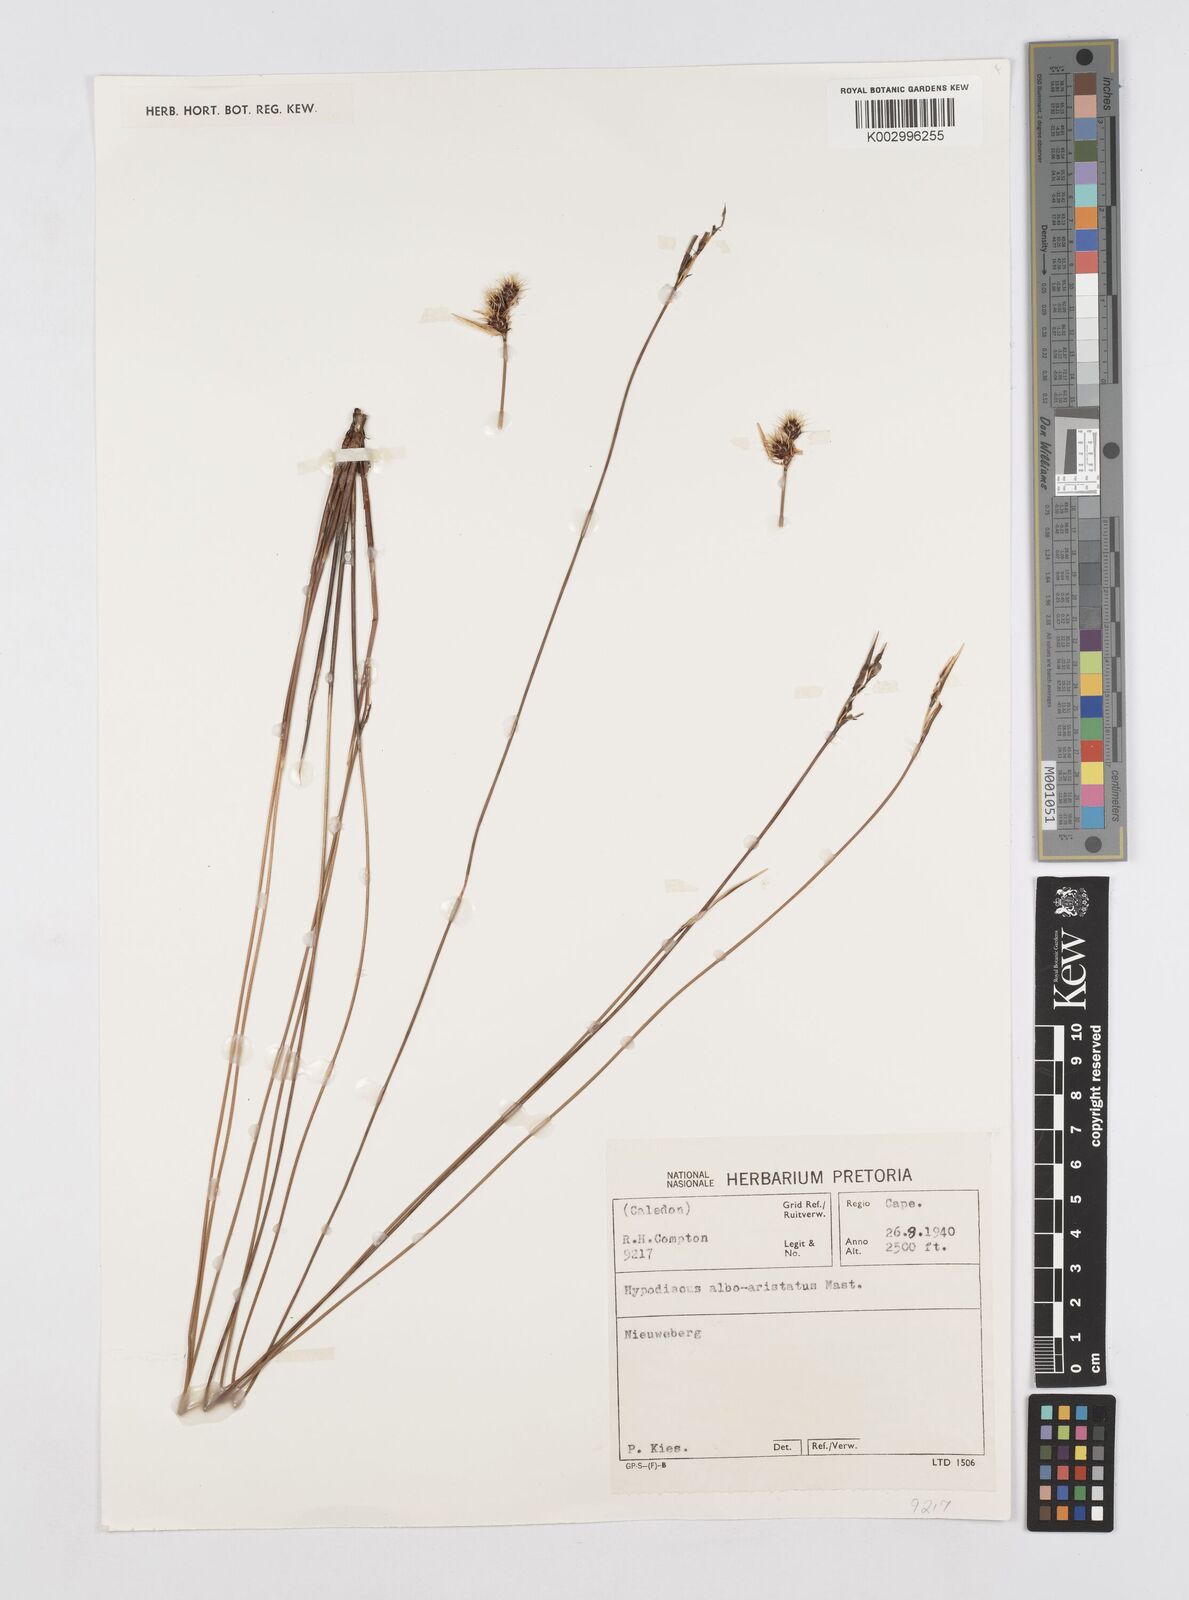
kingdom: Plantae
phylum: Tracheophyta
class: Liliopsida
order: Poales
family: Restionaceae
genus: Hypodiscus
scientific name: Hypodiscus alboaristatus
